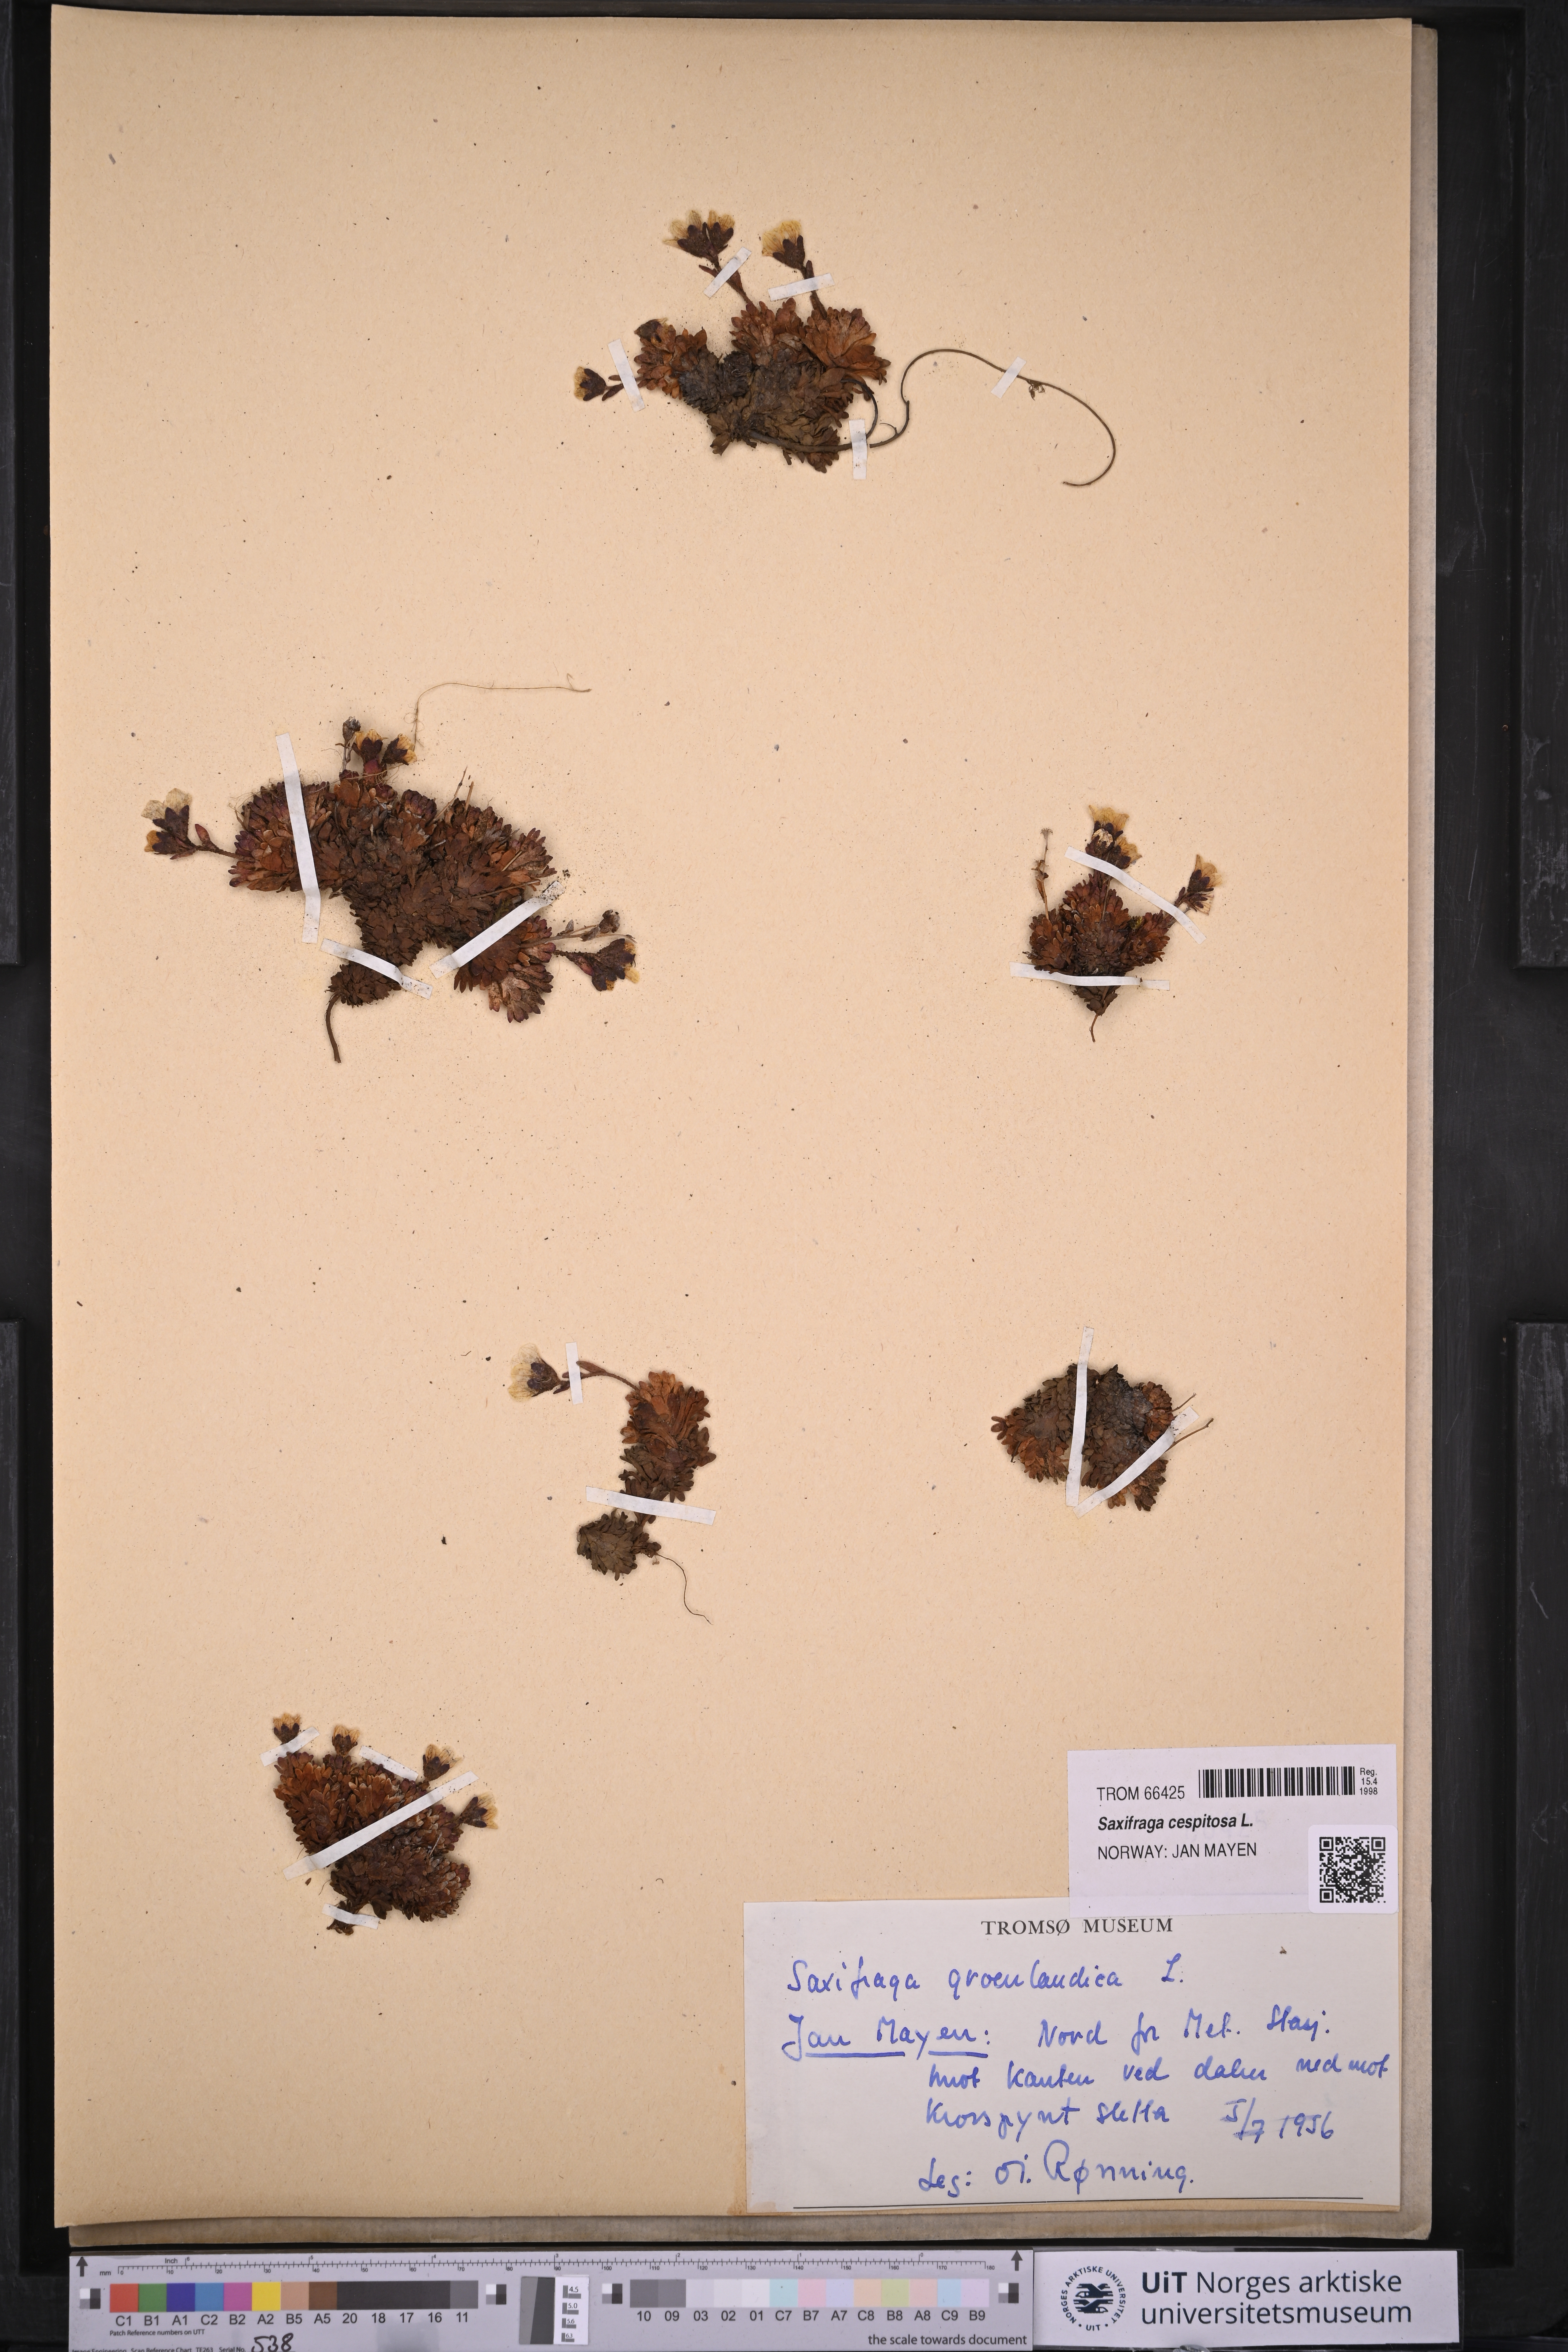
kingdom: Plantae
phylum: Tracheophyta
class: Magnoliopsida
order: Saxifragales
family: Saxifragaceae
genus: Saxifraga
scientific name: Saxifraga cespitosa
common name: Tufted saxifrage
